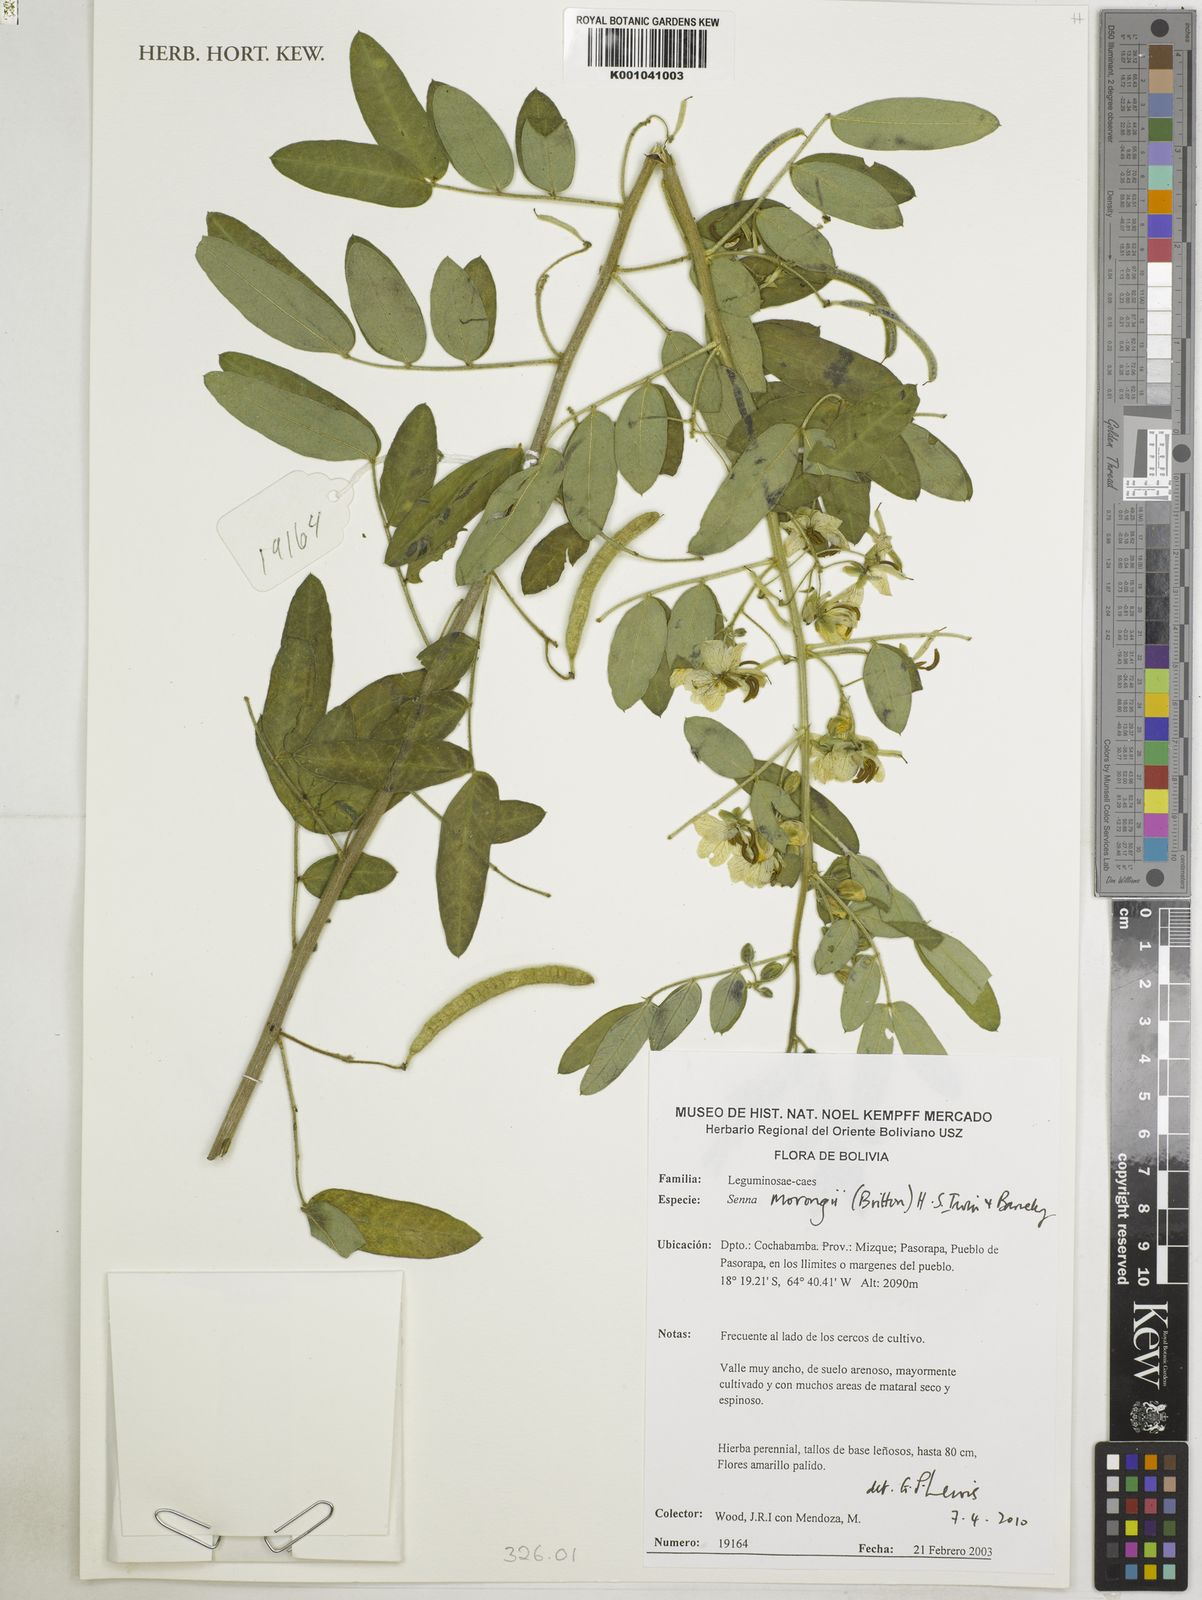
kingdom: Plantae
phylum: Tracheophyta
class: Magnoliopsida
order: Fabales
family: Fabaceae
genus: Senna
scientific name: Senna morongii
